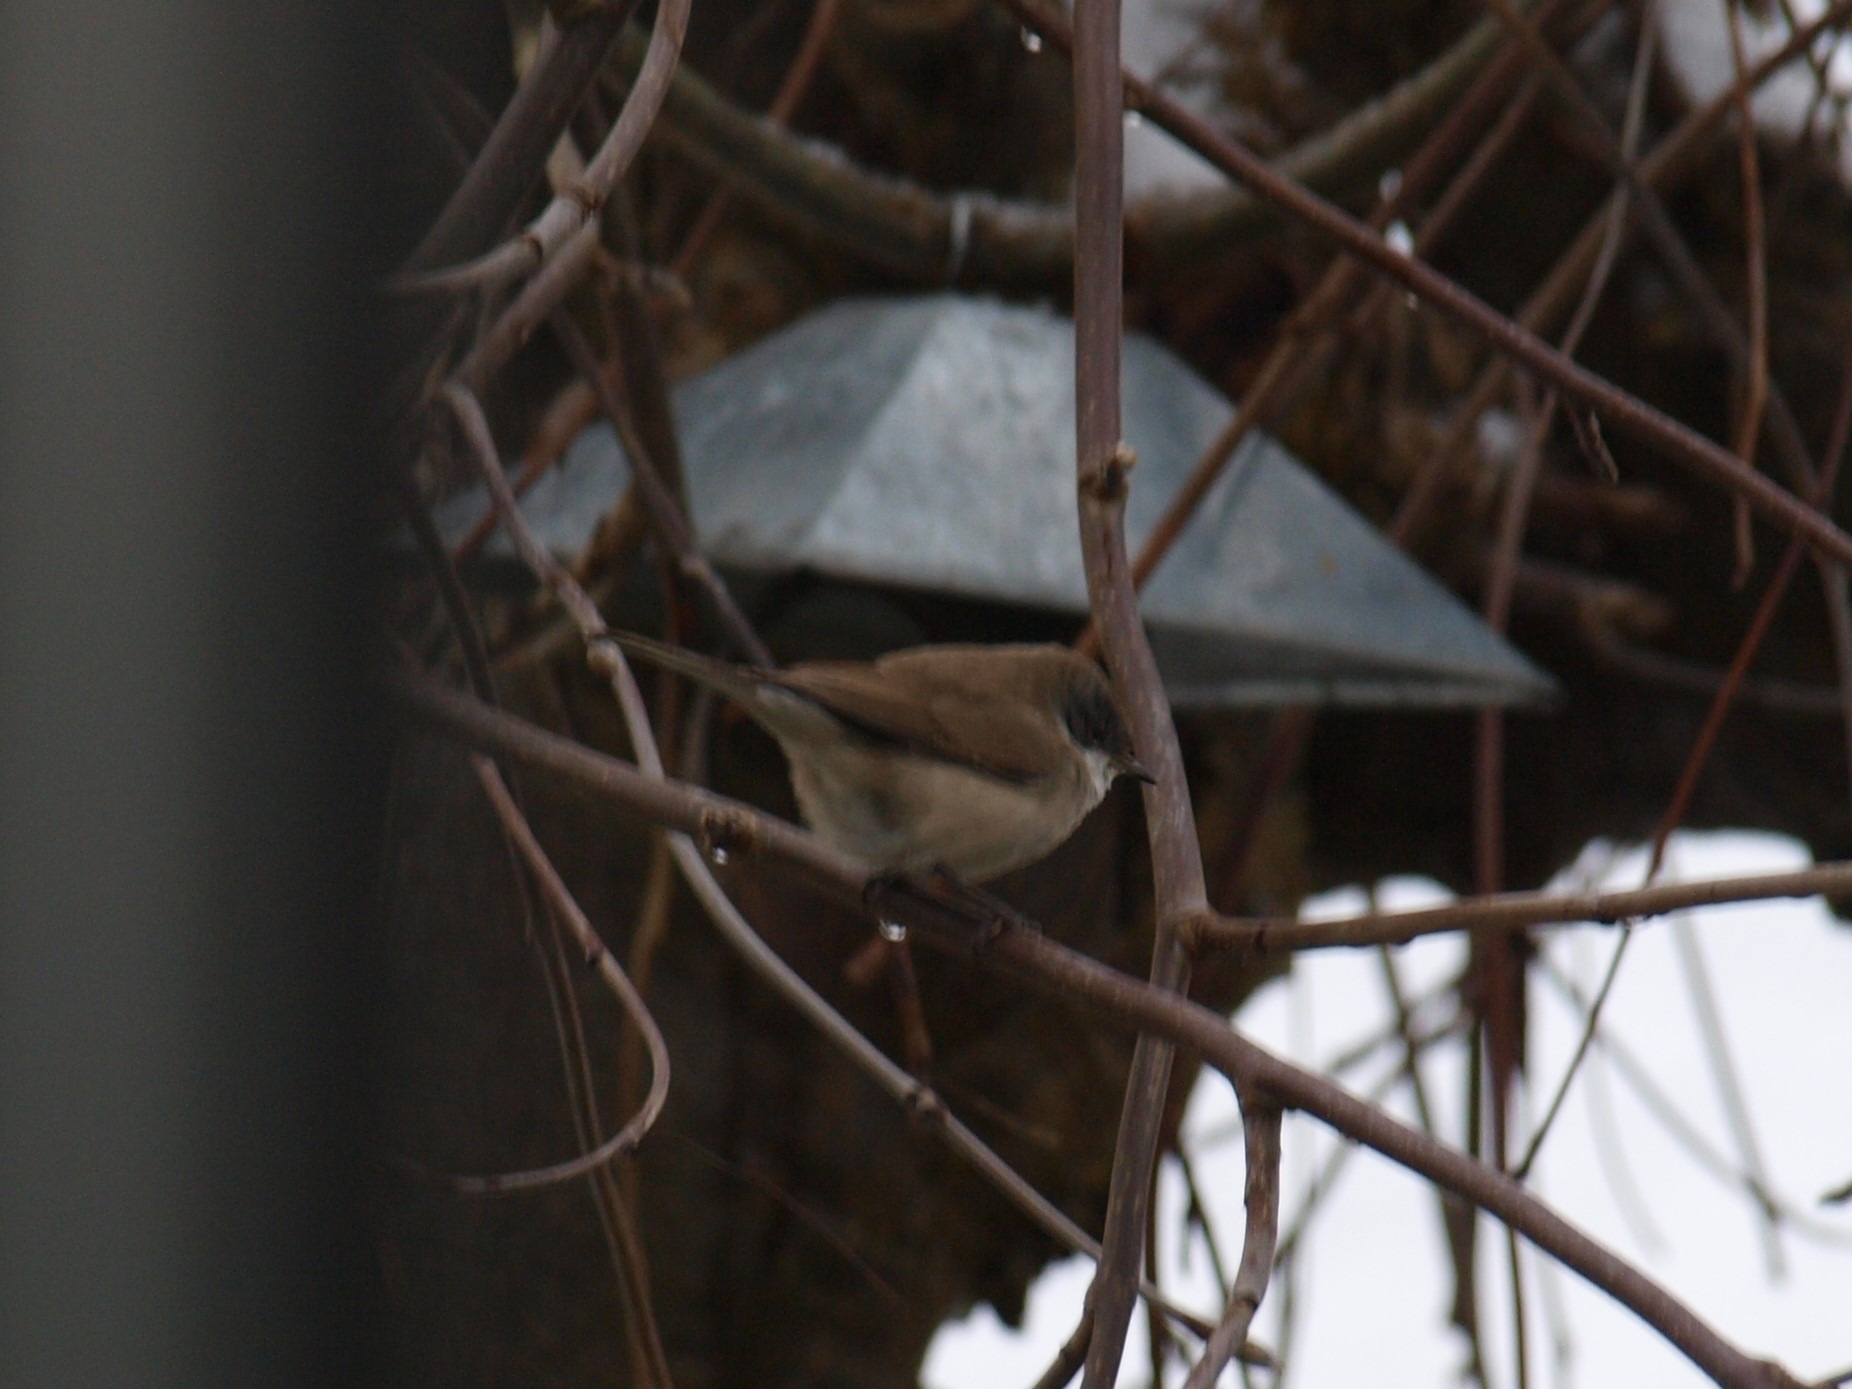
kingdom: Animalia
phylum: Chordata
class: Aves
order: Passeriformes
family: Sylviidae
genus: Sylvia
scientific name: Sylvia curruca
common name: Gærdesanger
